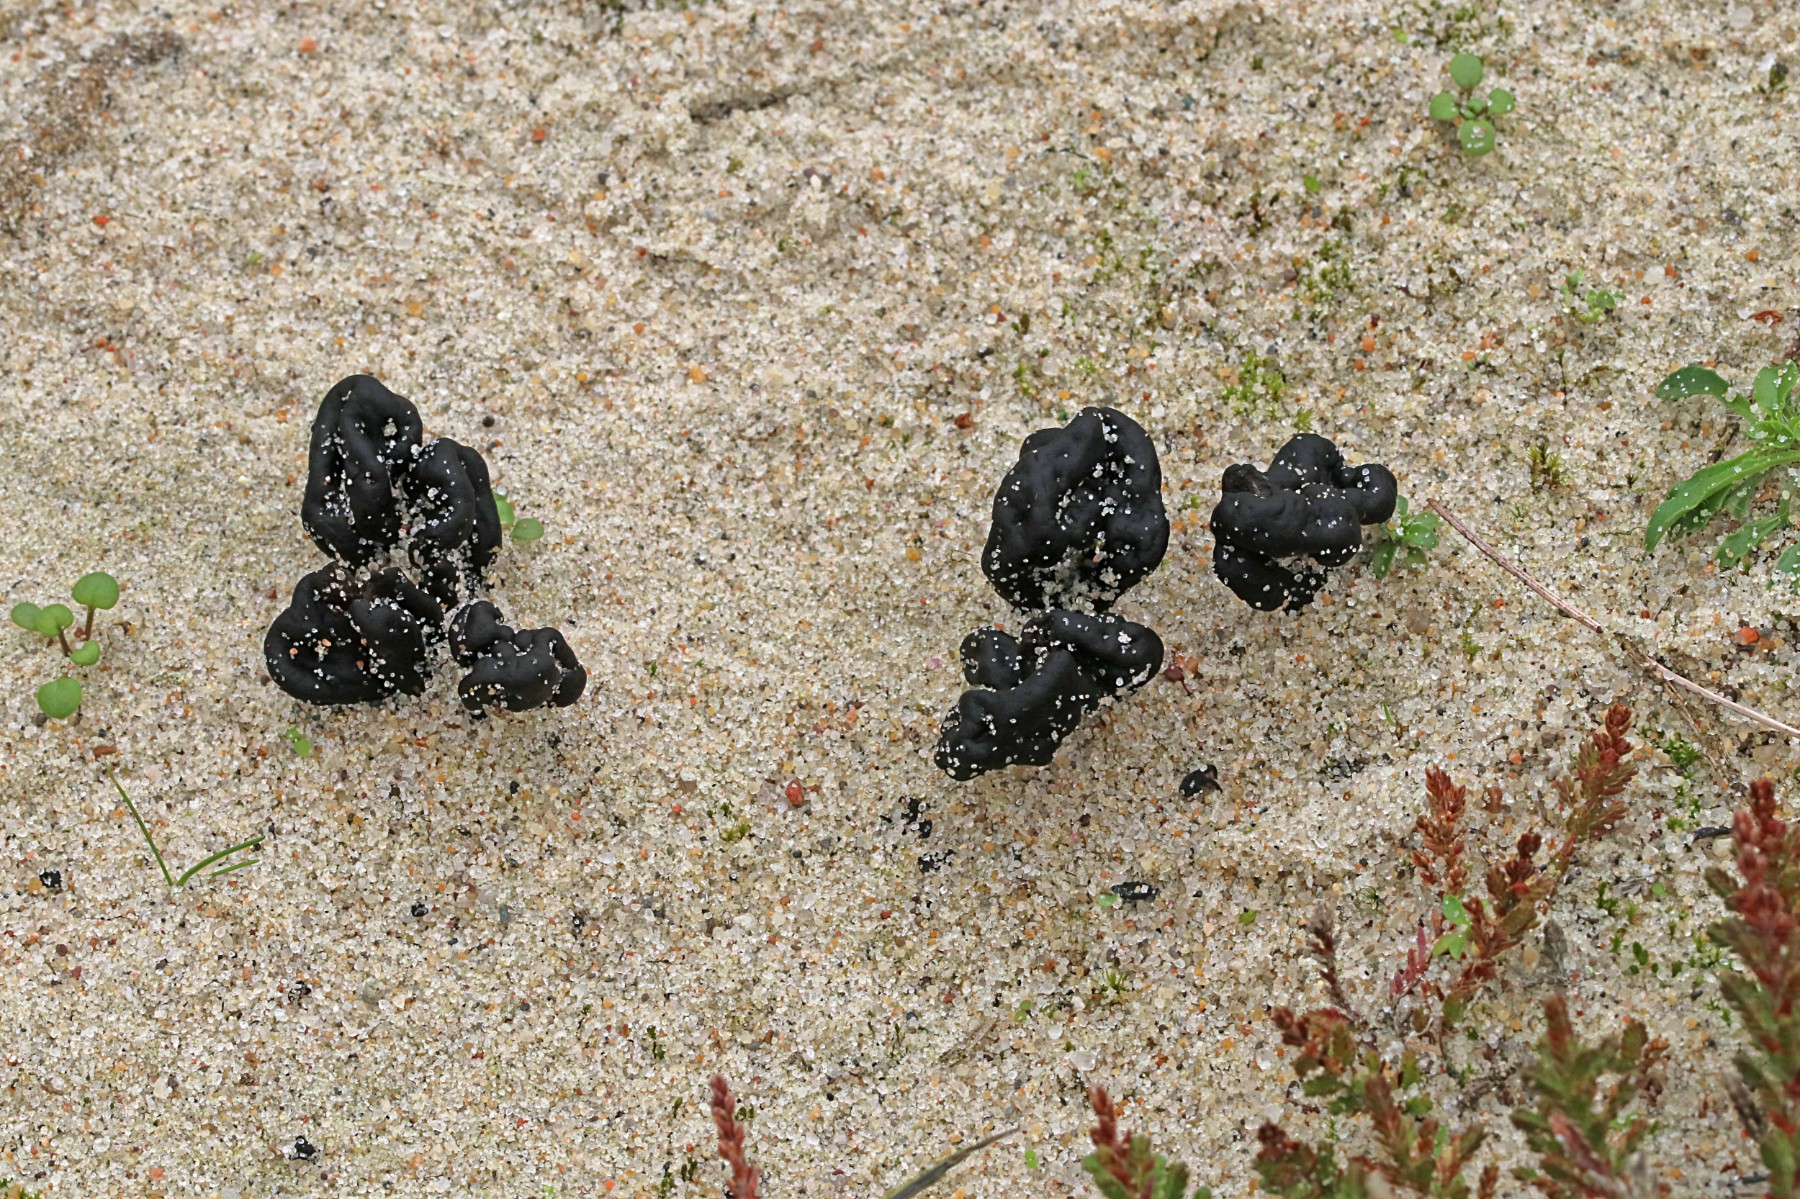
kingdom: Fungi
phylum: Ascomycota
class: Geoglossomycetes
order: Geoglossales
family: Geoglossaceae
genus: Sabuloglossum
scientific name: Sabuloglossum arenarium
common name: klit-jordtunge
